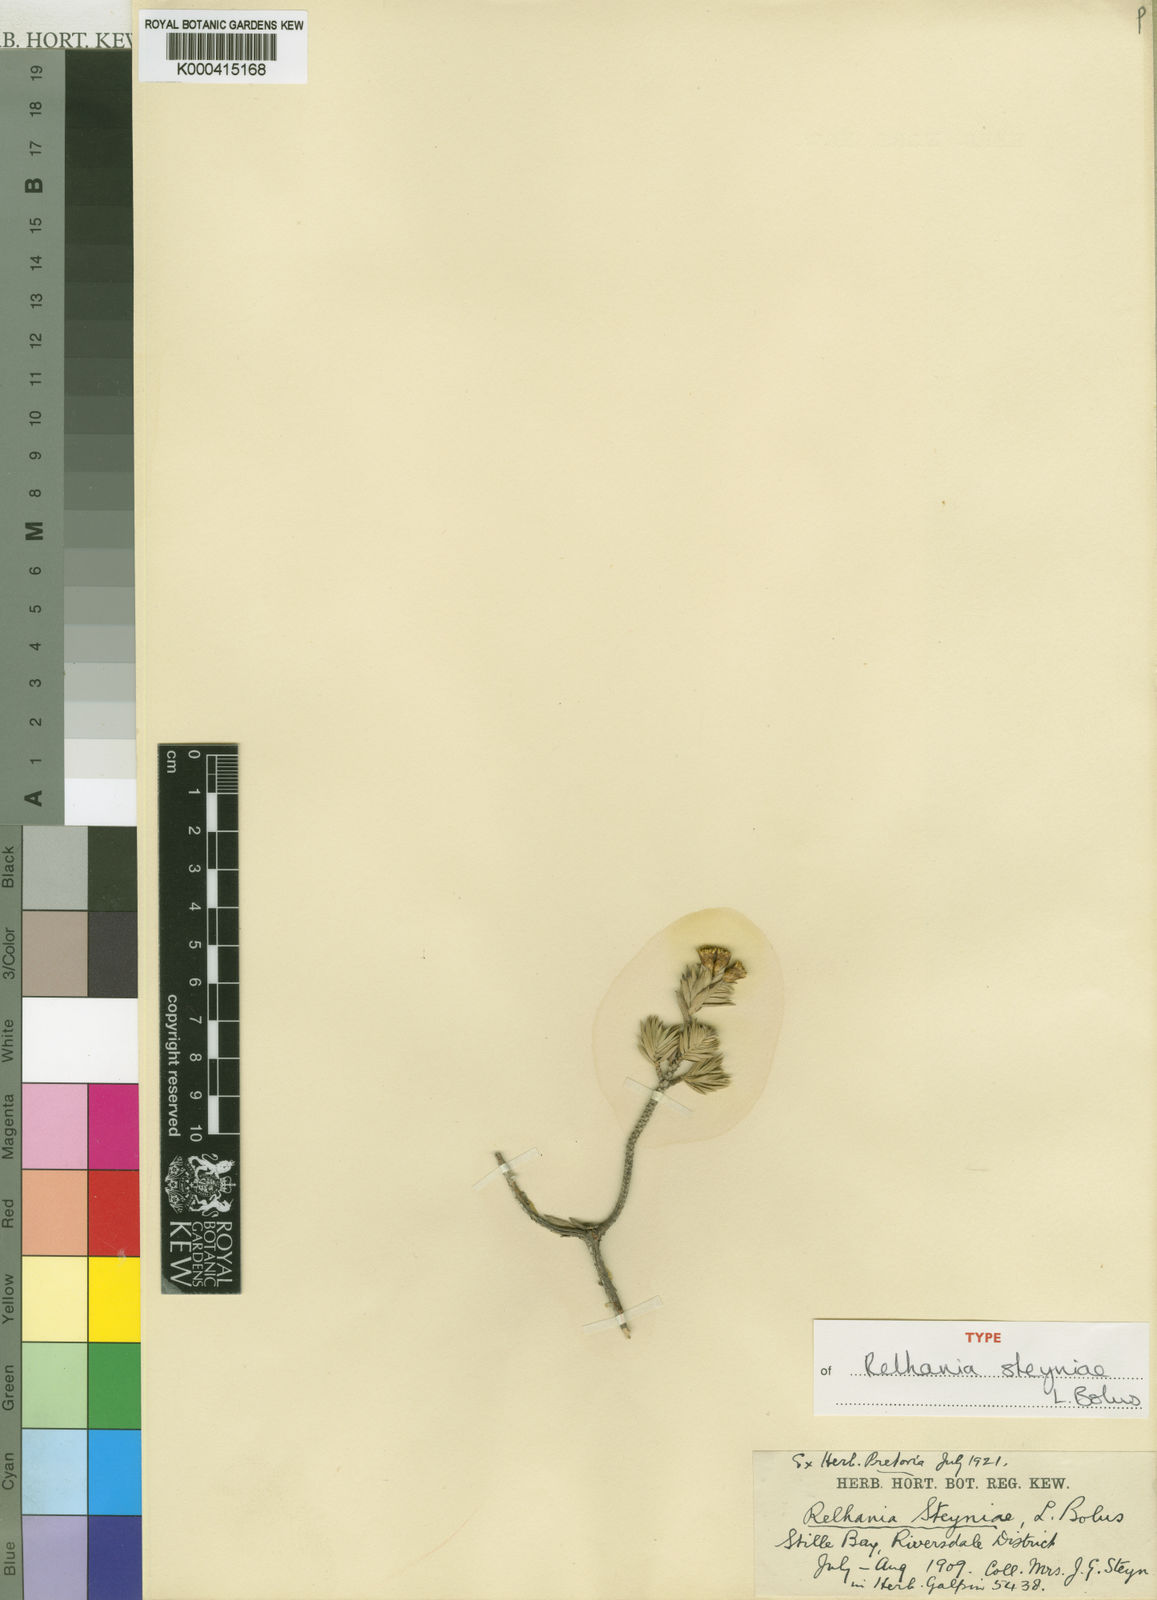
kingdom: Plantae
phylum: Tracheophyta
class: Magnoliopsida
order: Asterales
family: Asteraceae
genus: Oedera
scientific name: Oedera steyniae
